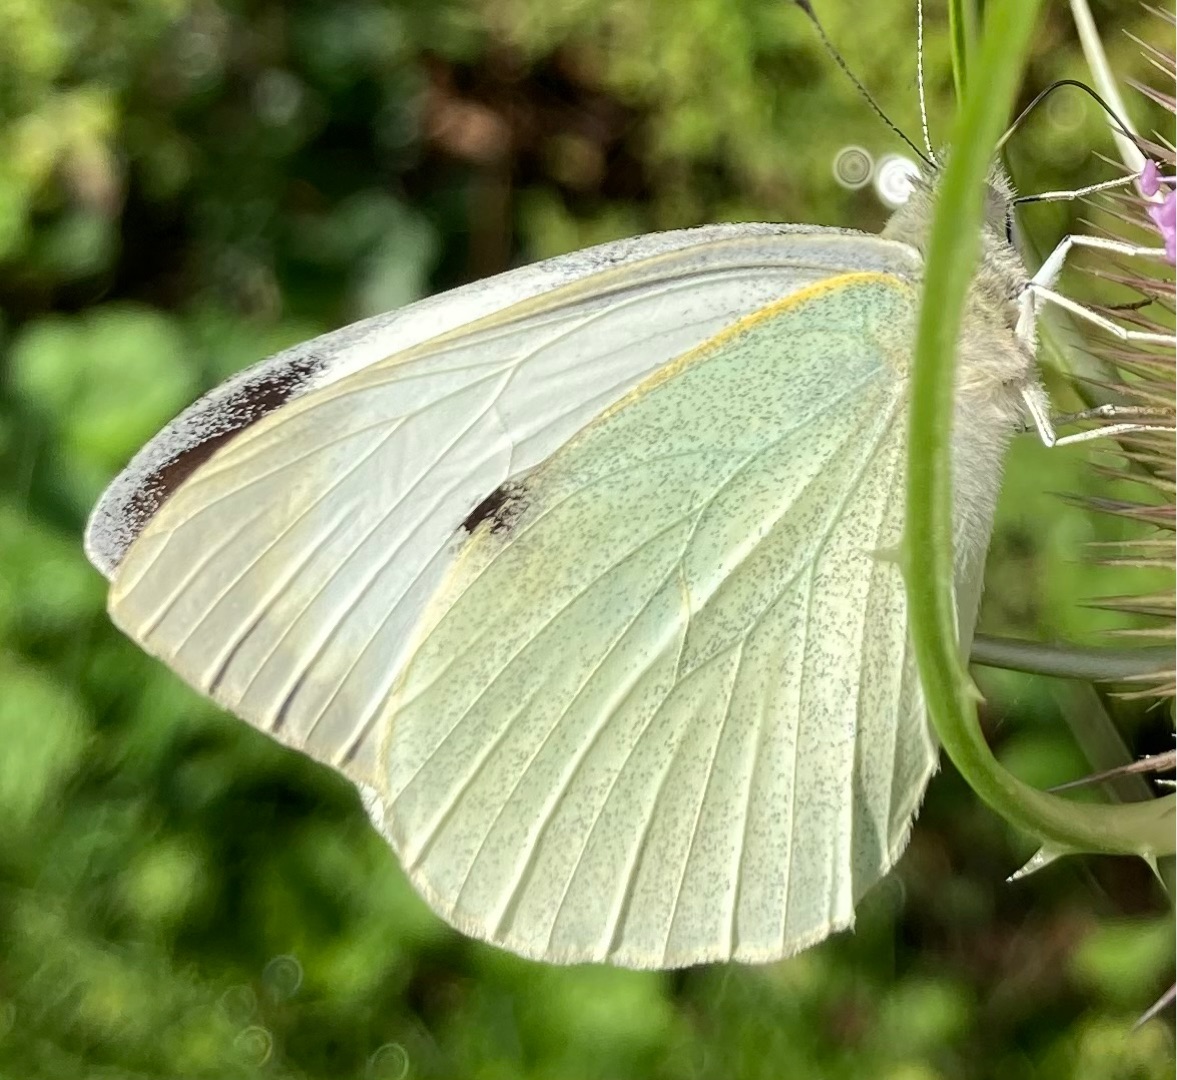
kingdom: Animalia
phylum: Arthropoda
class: Insecta
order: Lepidoptera
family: Pieridae
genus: Pieris
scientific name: Pieris brassicae
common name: Stor kålsommerfugl
